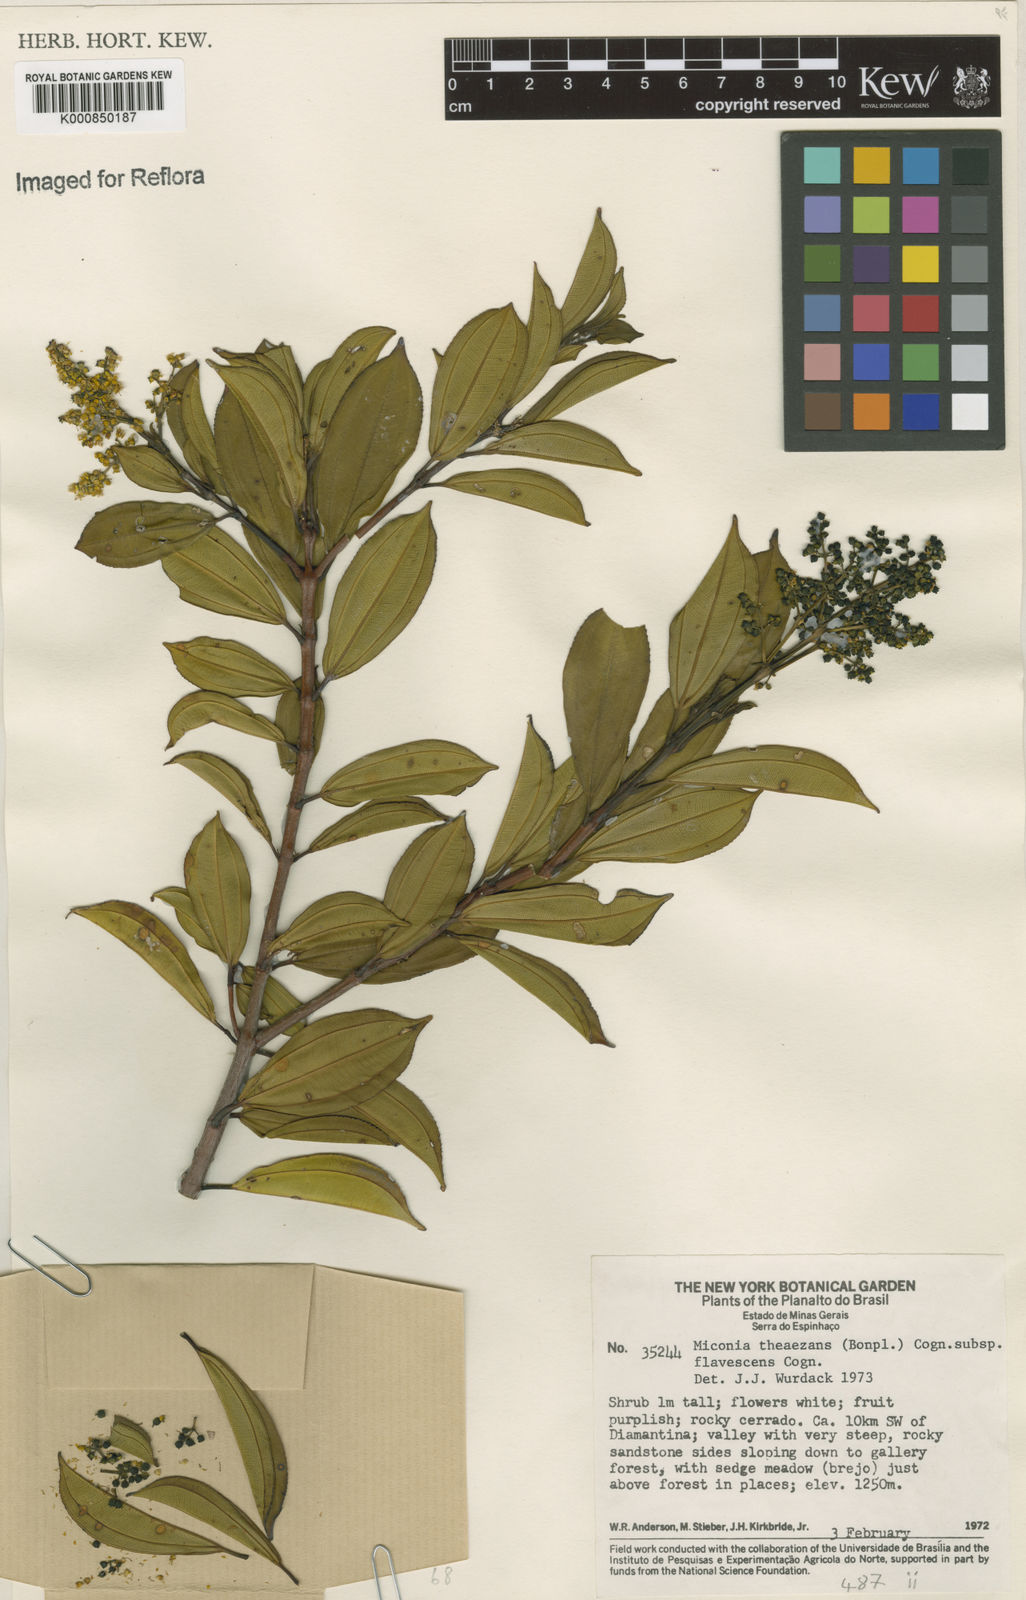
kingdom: Plantae
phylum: Tracheophyta
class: Magnoliopsida
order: Myrtales
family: Melastomataceae
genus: Miconia
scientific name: Miconia
